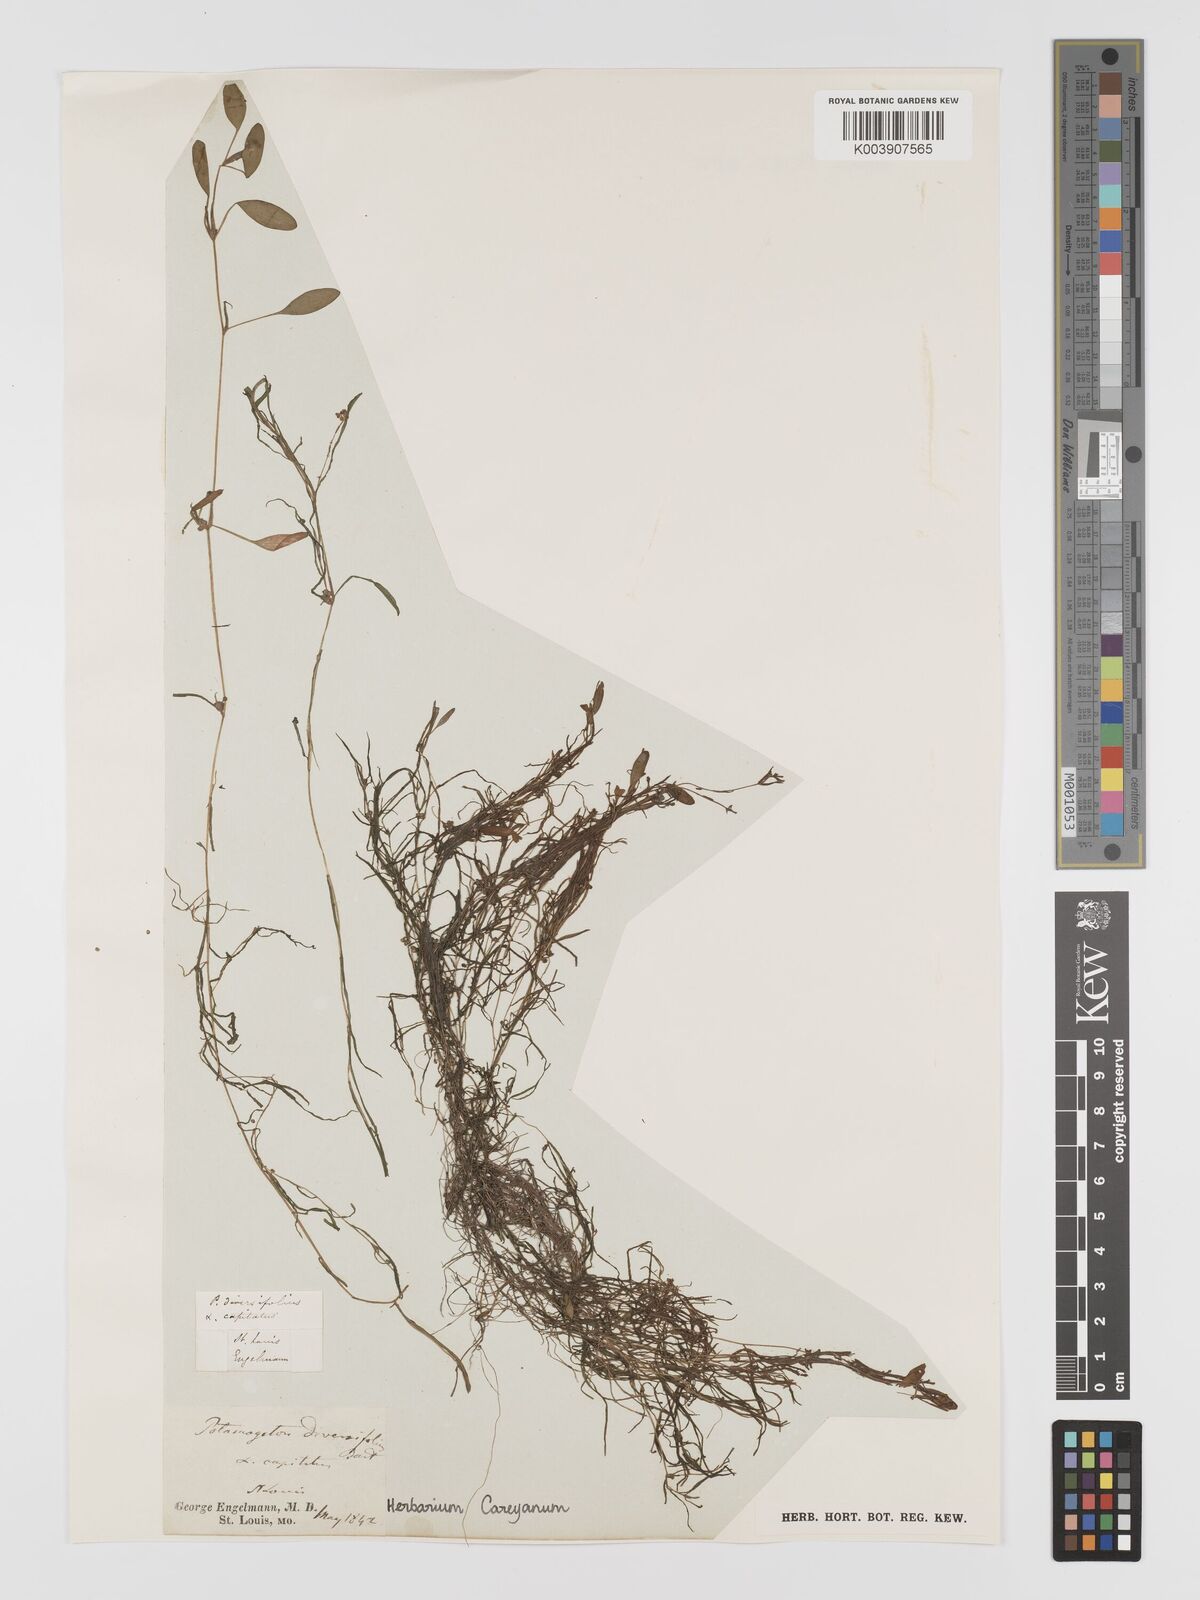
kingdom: Plantae
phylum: Tracheophyta
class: Liliopsida
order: Alismatales
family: Potamogetonaceae
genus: Potamogeton
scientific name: Potamogeton bicupulatus
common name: Snail-seed pondweed
